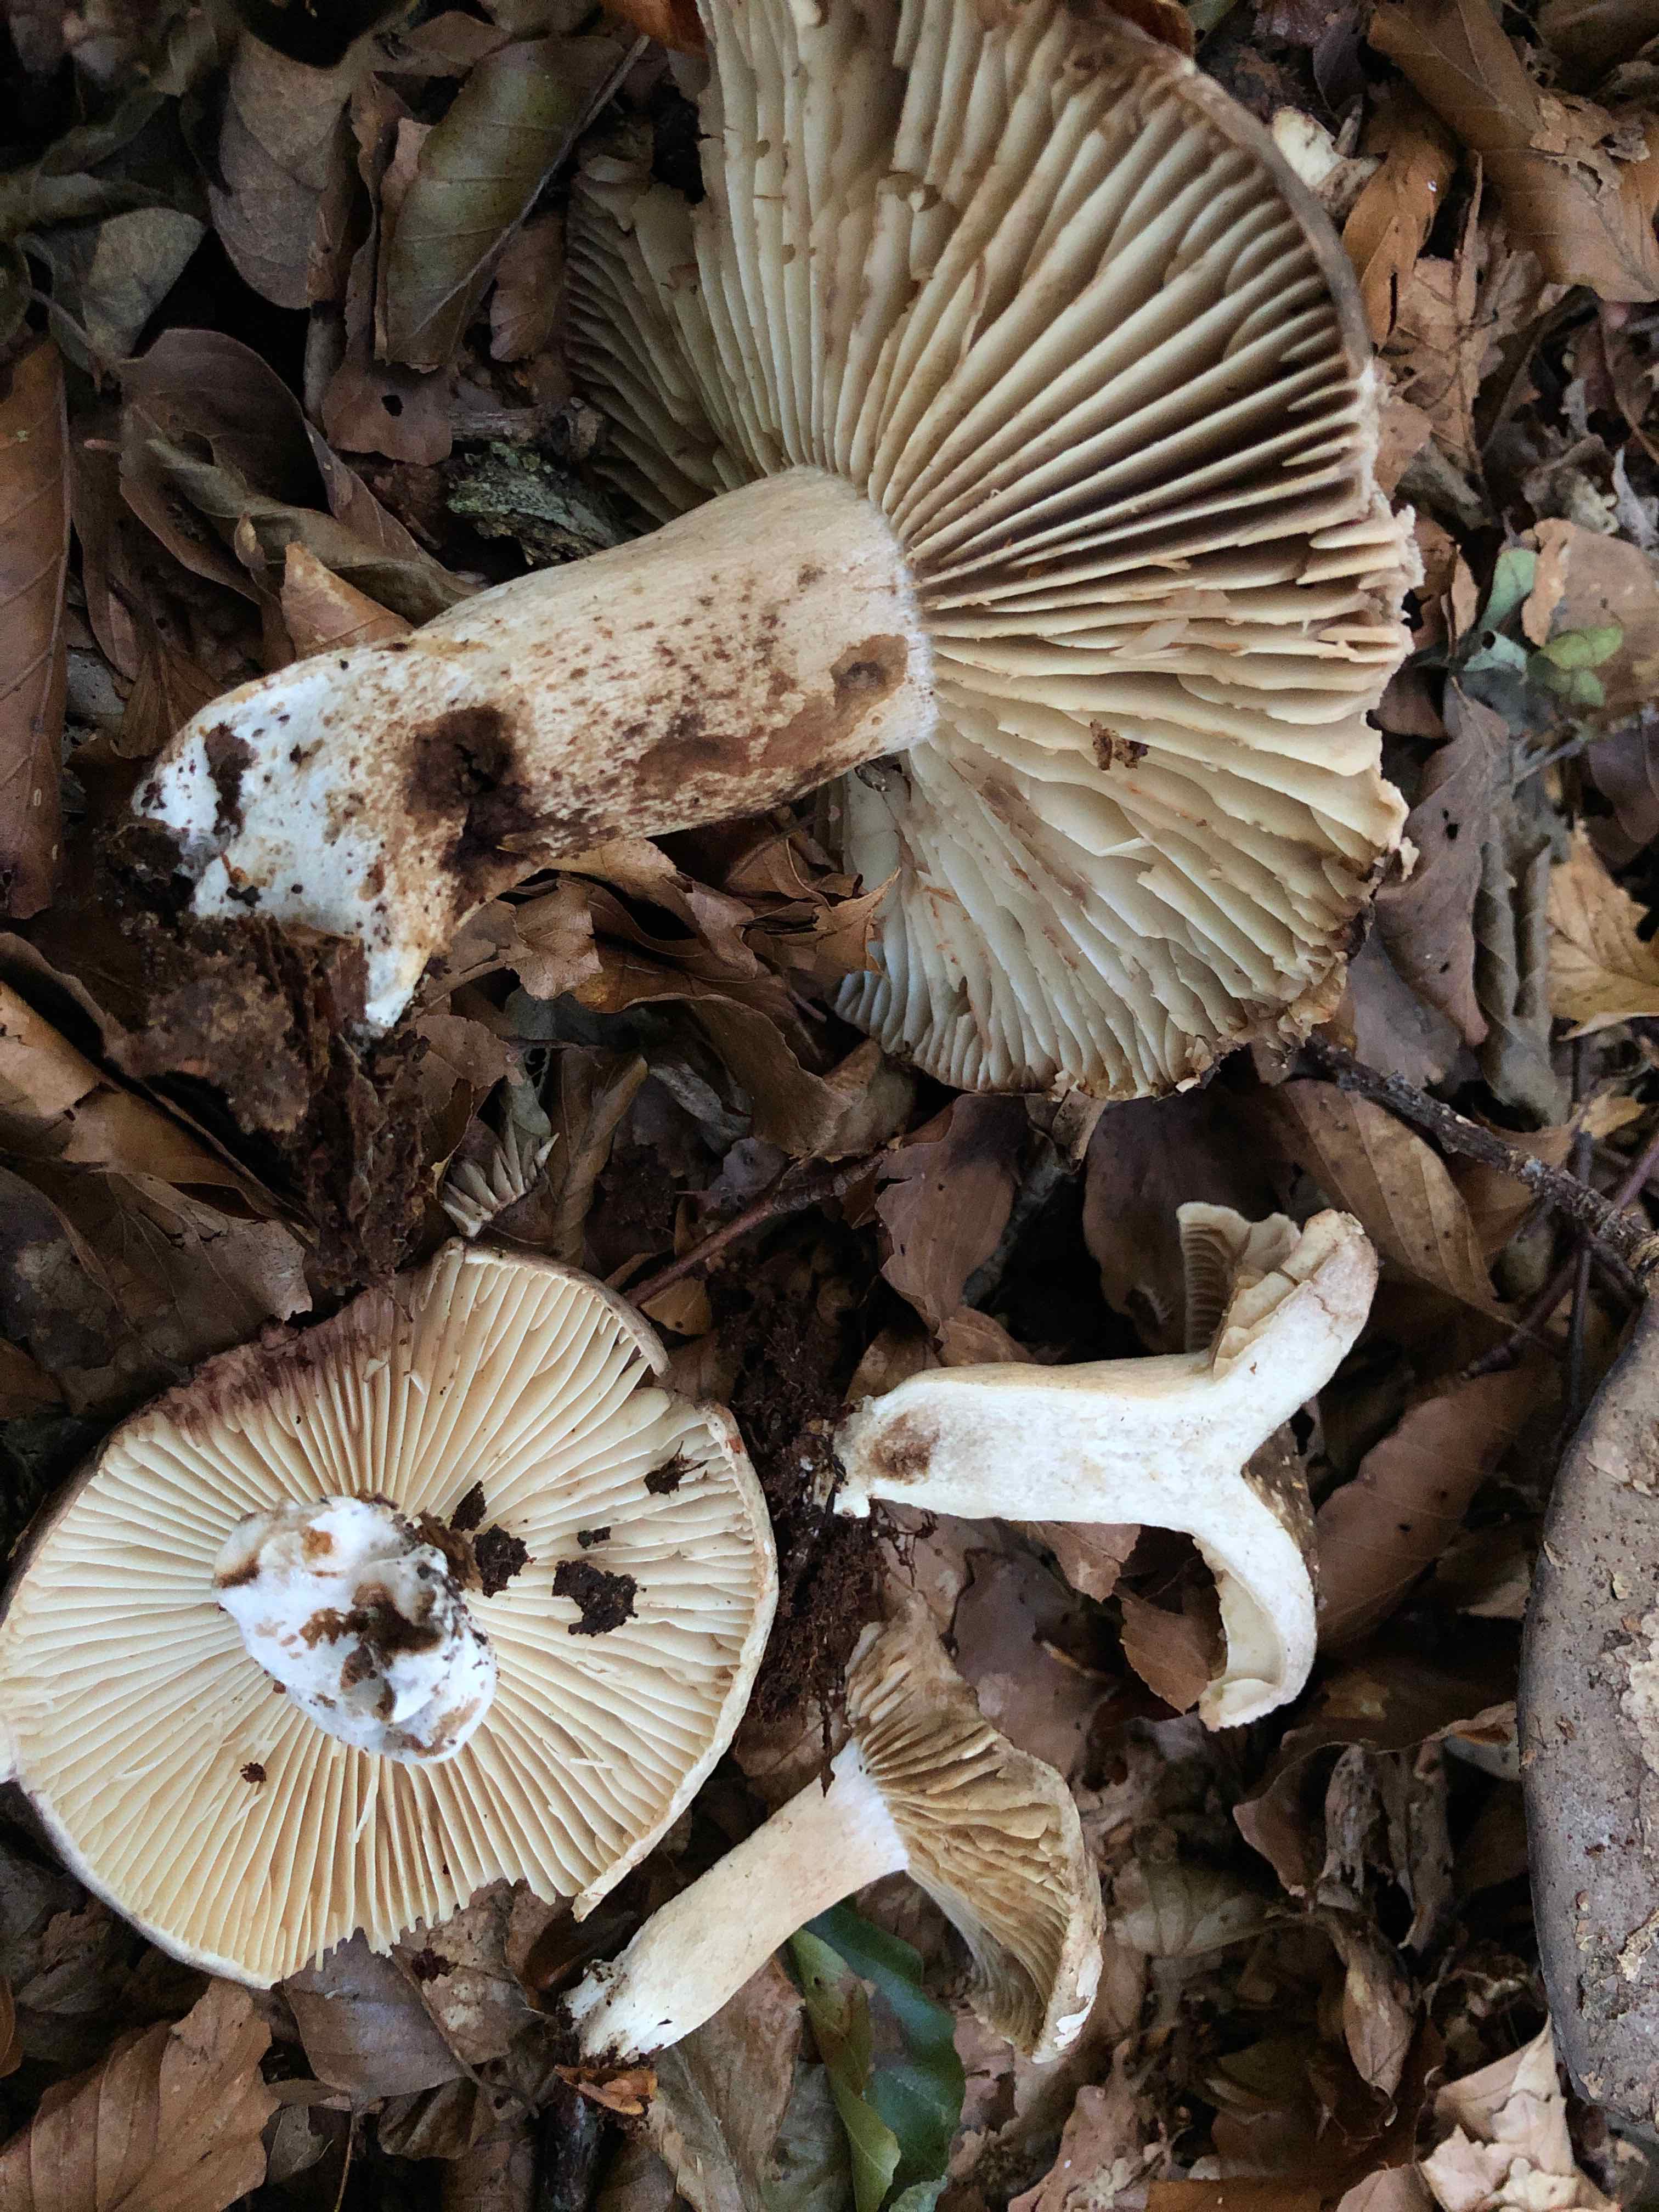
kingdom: Fungi
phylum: Basidiomycota
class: Agaricomycetes
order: Russulales
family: Russulaceae
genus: Russula
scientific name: Russula adusta
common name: sværtende skørhat
